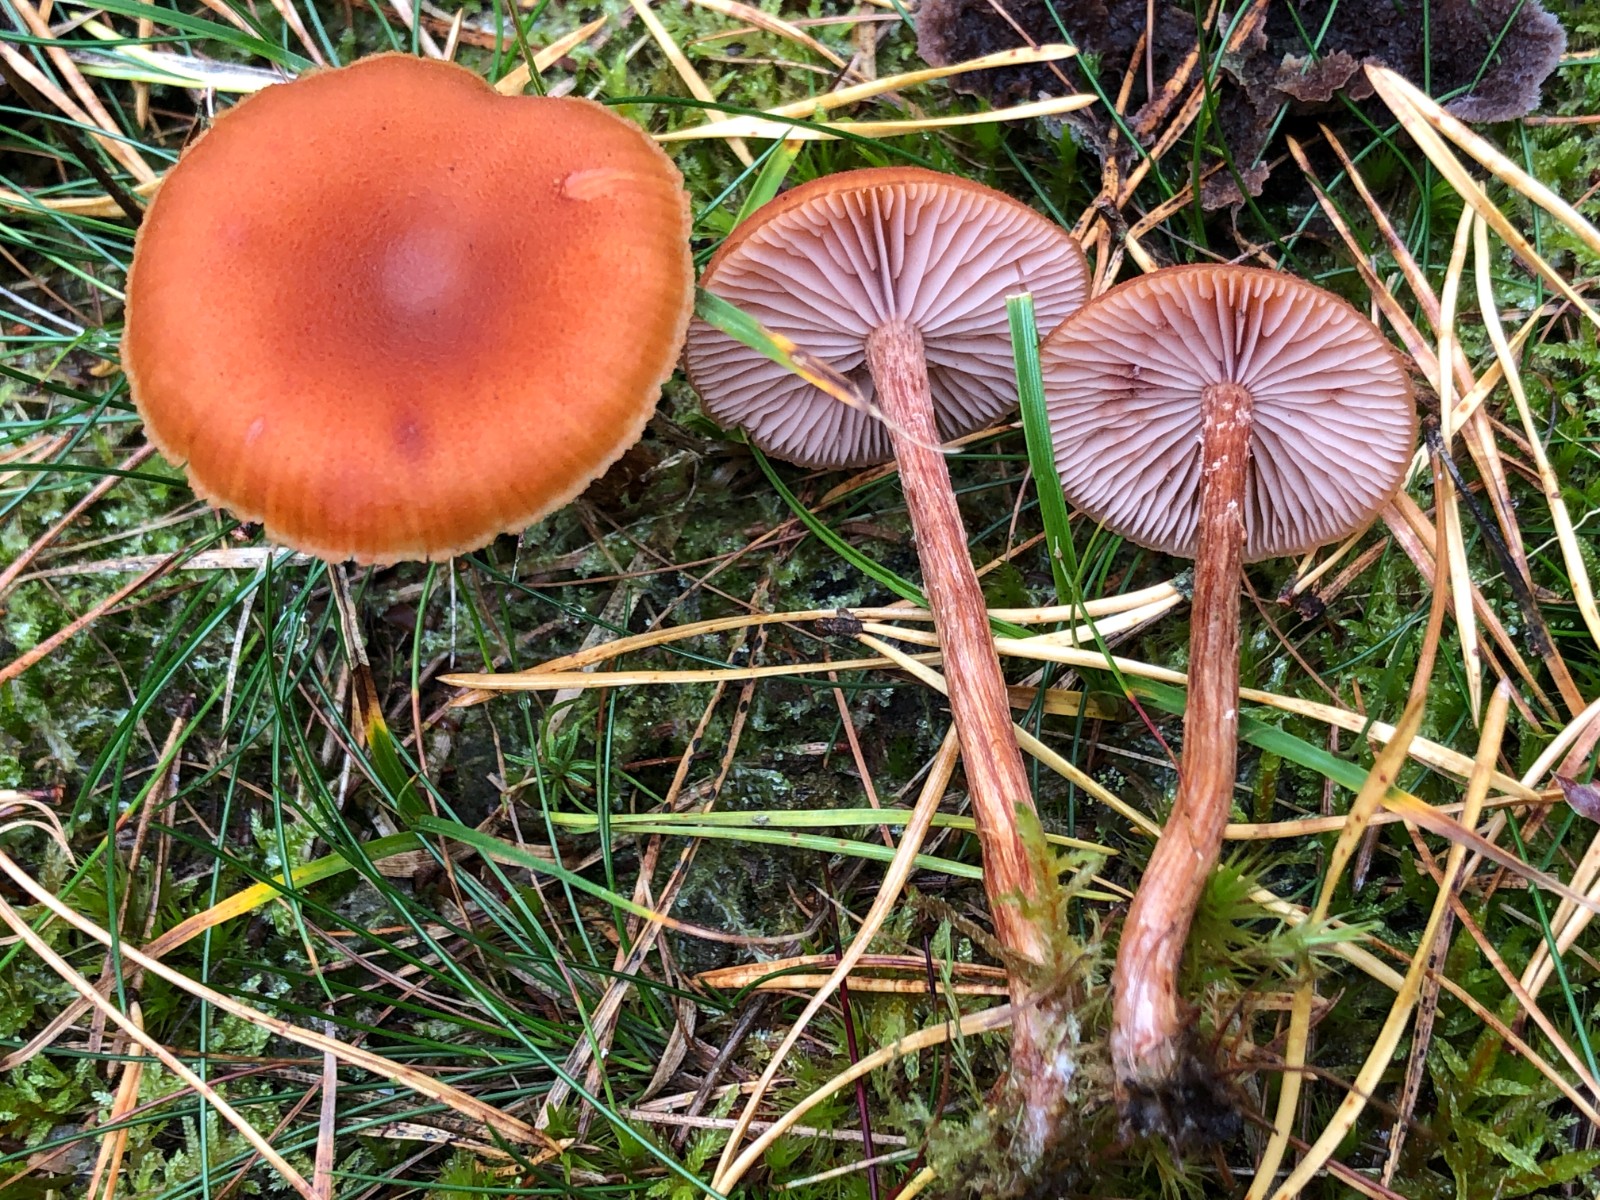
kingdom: Fungi
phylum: Basidiomycota
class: Agaricomycetes
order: Agaricales
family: Hydnangiaceae
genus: Laccaria
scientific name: Laccaria proxima
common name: stor ametysthat
